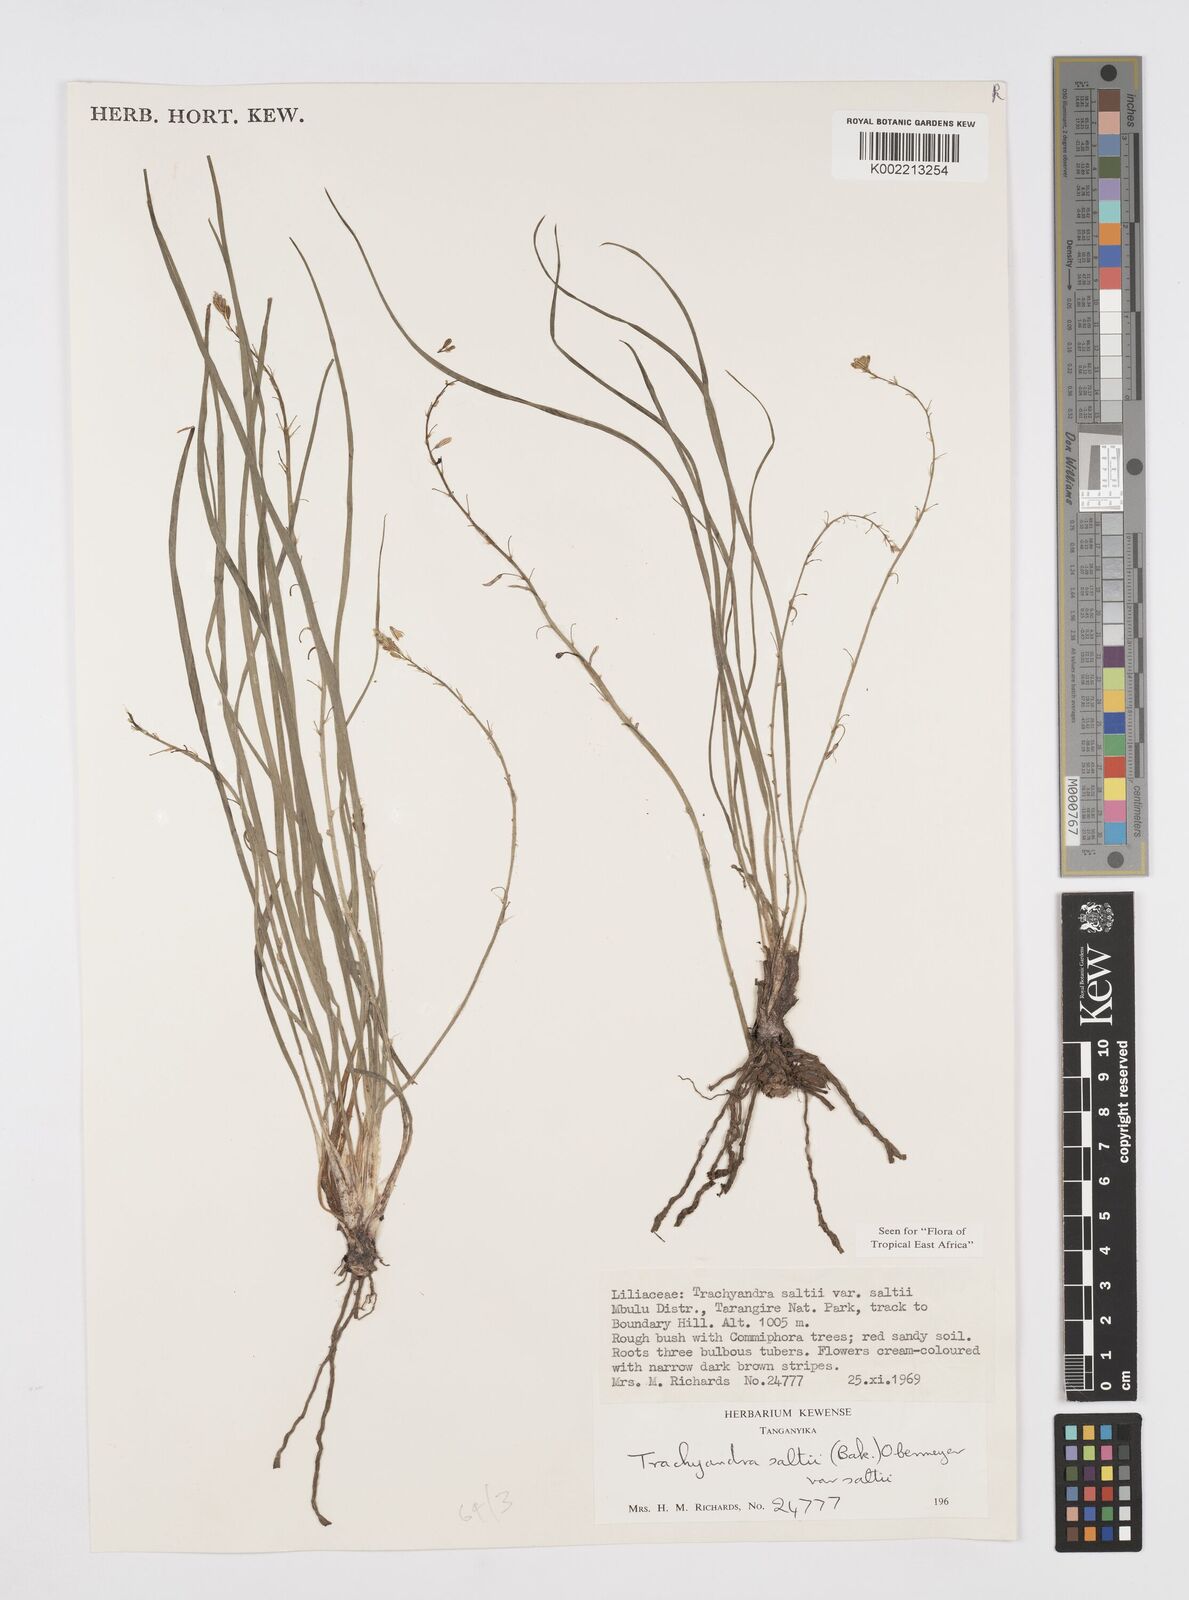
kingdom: Plantae
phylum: Tracheophyta
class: Liliopsida
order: Asparagales
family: Asphodelaceae
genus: Trachyandra
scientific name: Trachyandra saltii
